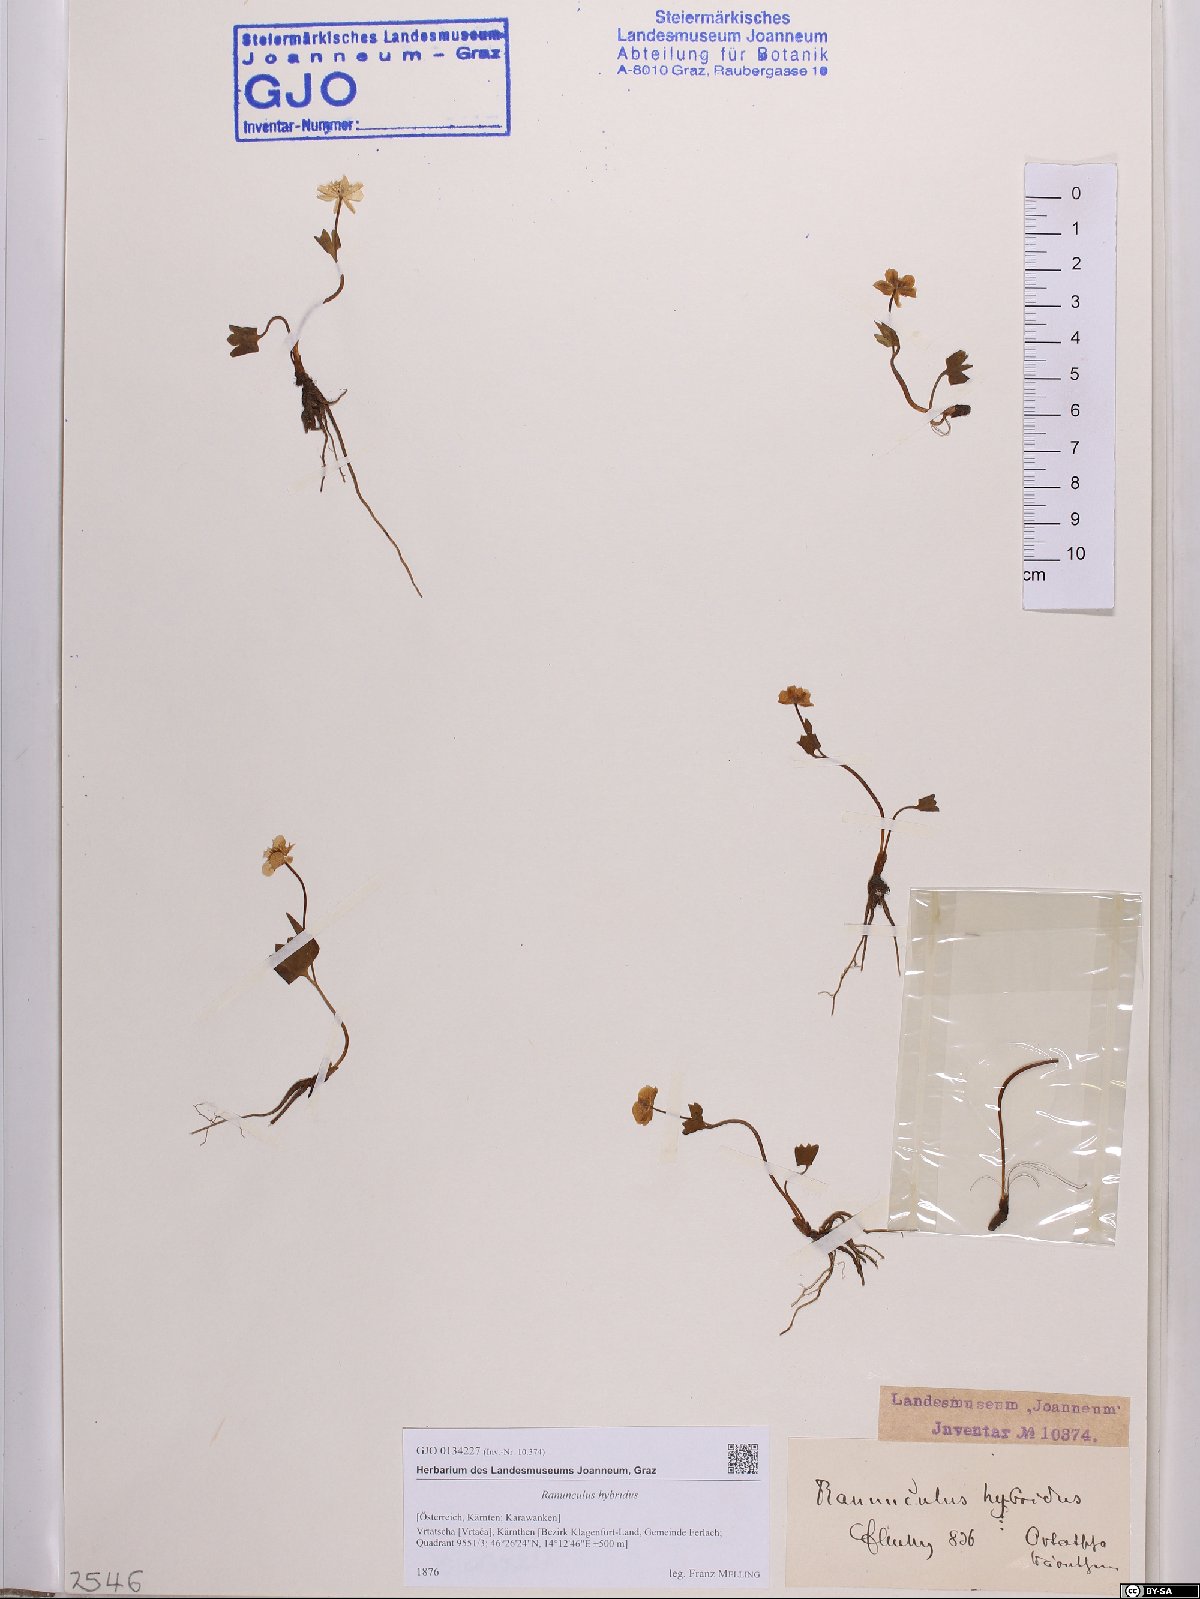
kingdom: Plantae
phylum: Tracheophyta
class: Magnoliopsida
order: Ranunculales
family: Ranunculaceae
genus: Ranunculus
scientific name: Ranunculus hybridus
